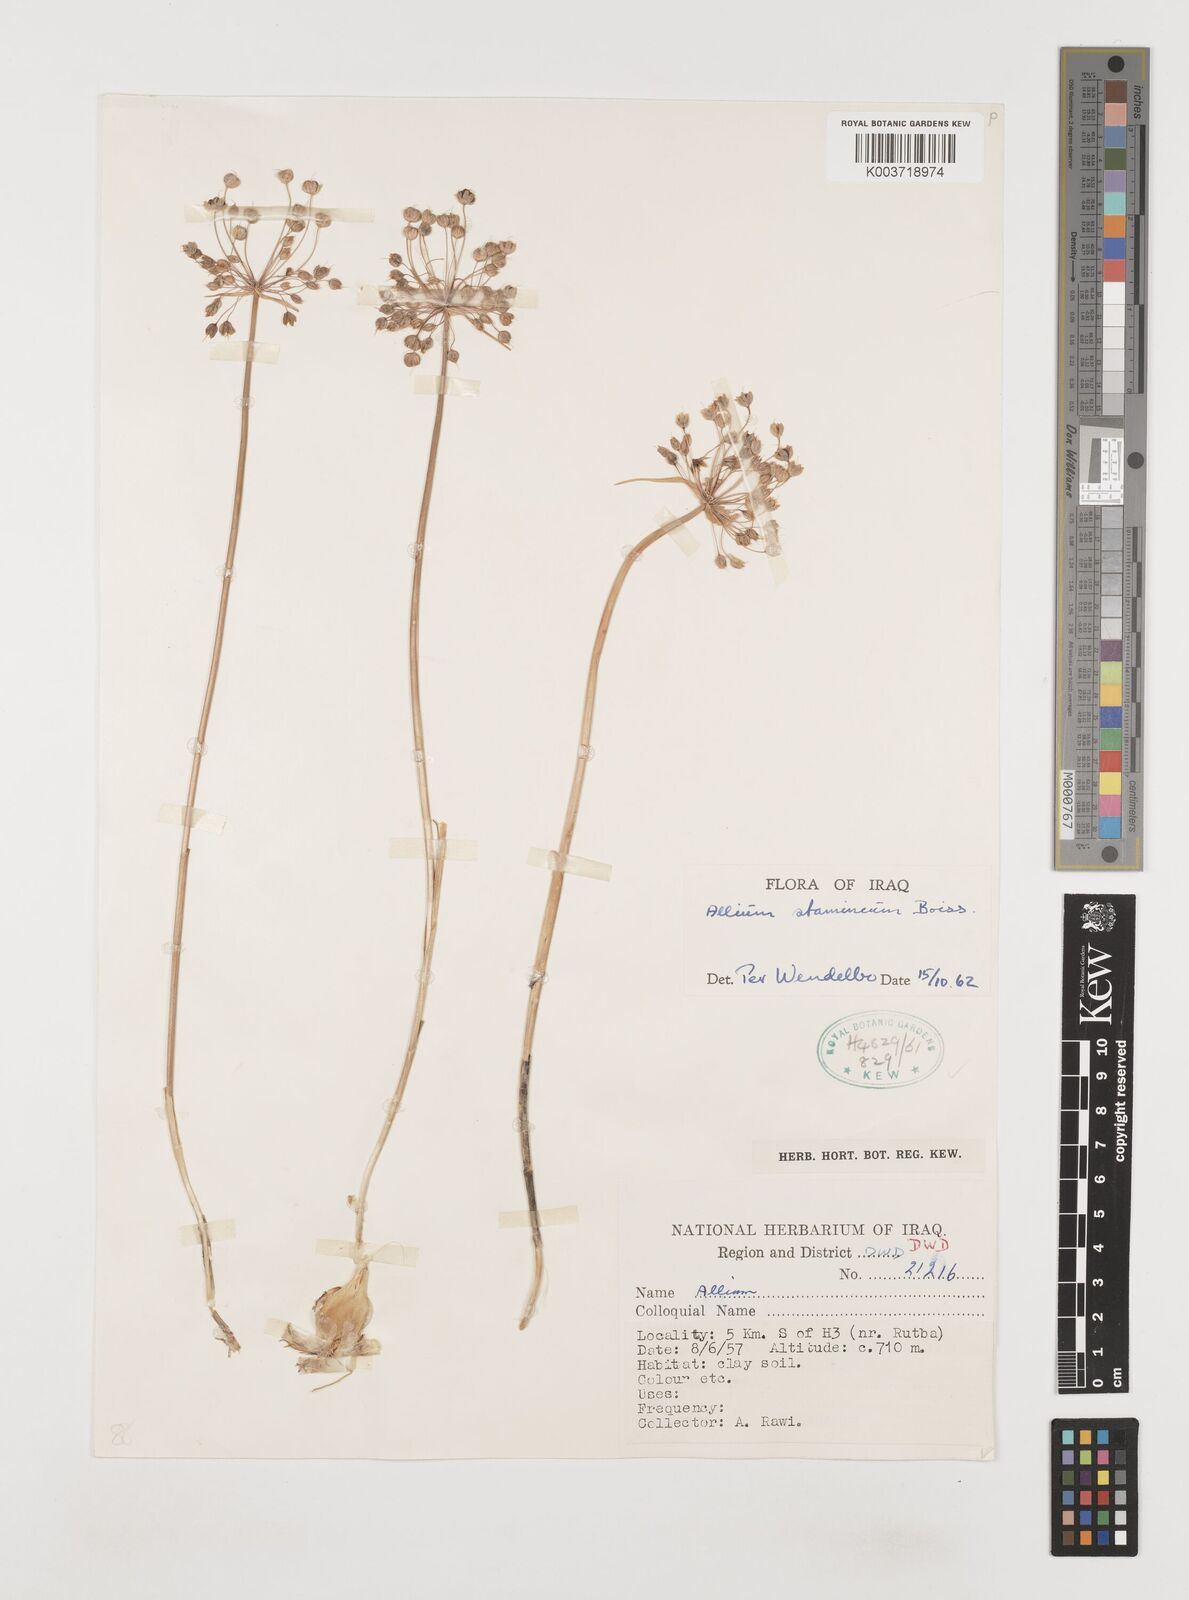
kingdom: Plantae
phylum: Tracheophyta
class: Liliopsida
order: Asparagales
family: Amaryllidaceae
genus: Allium
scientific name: Allium stamineum
